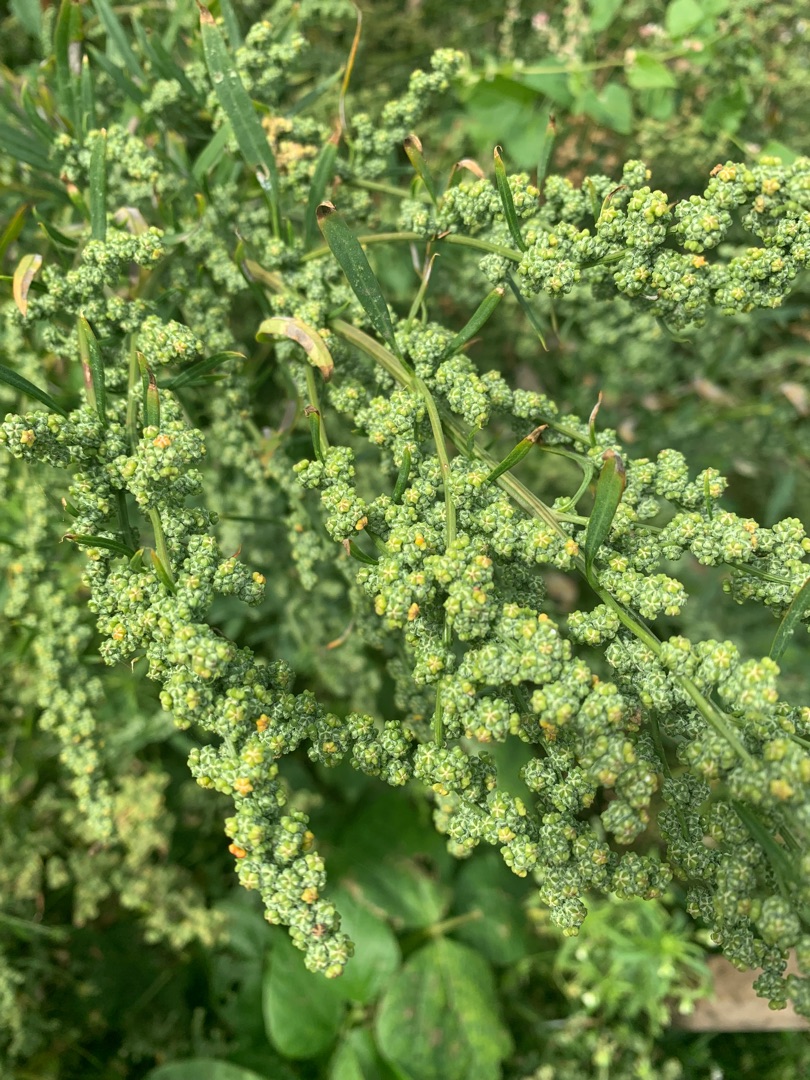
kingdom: Plantae
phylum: Tracheophyta
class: Magnoliopsida
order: Caryophyllales
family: Amaranthaceae
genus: Chenopodium
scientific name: Chenopodium album
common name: Hvidmelet gåsefod
